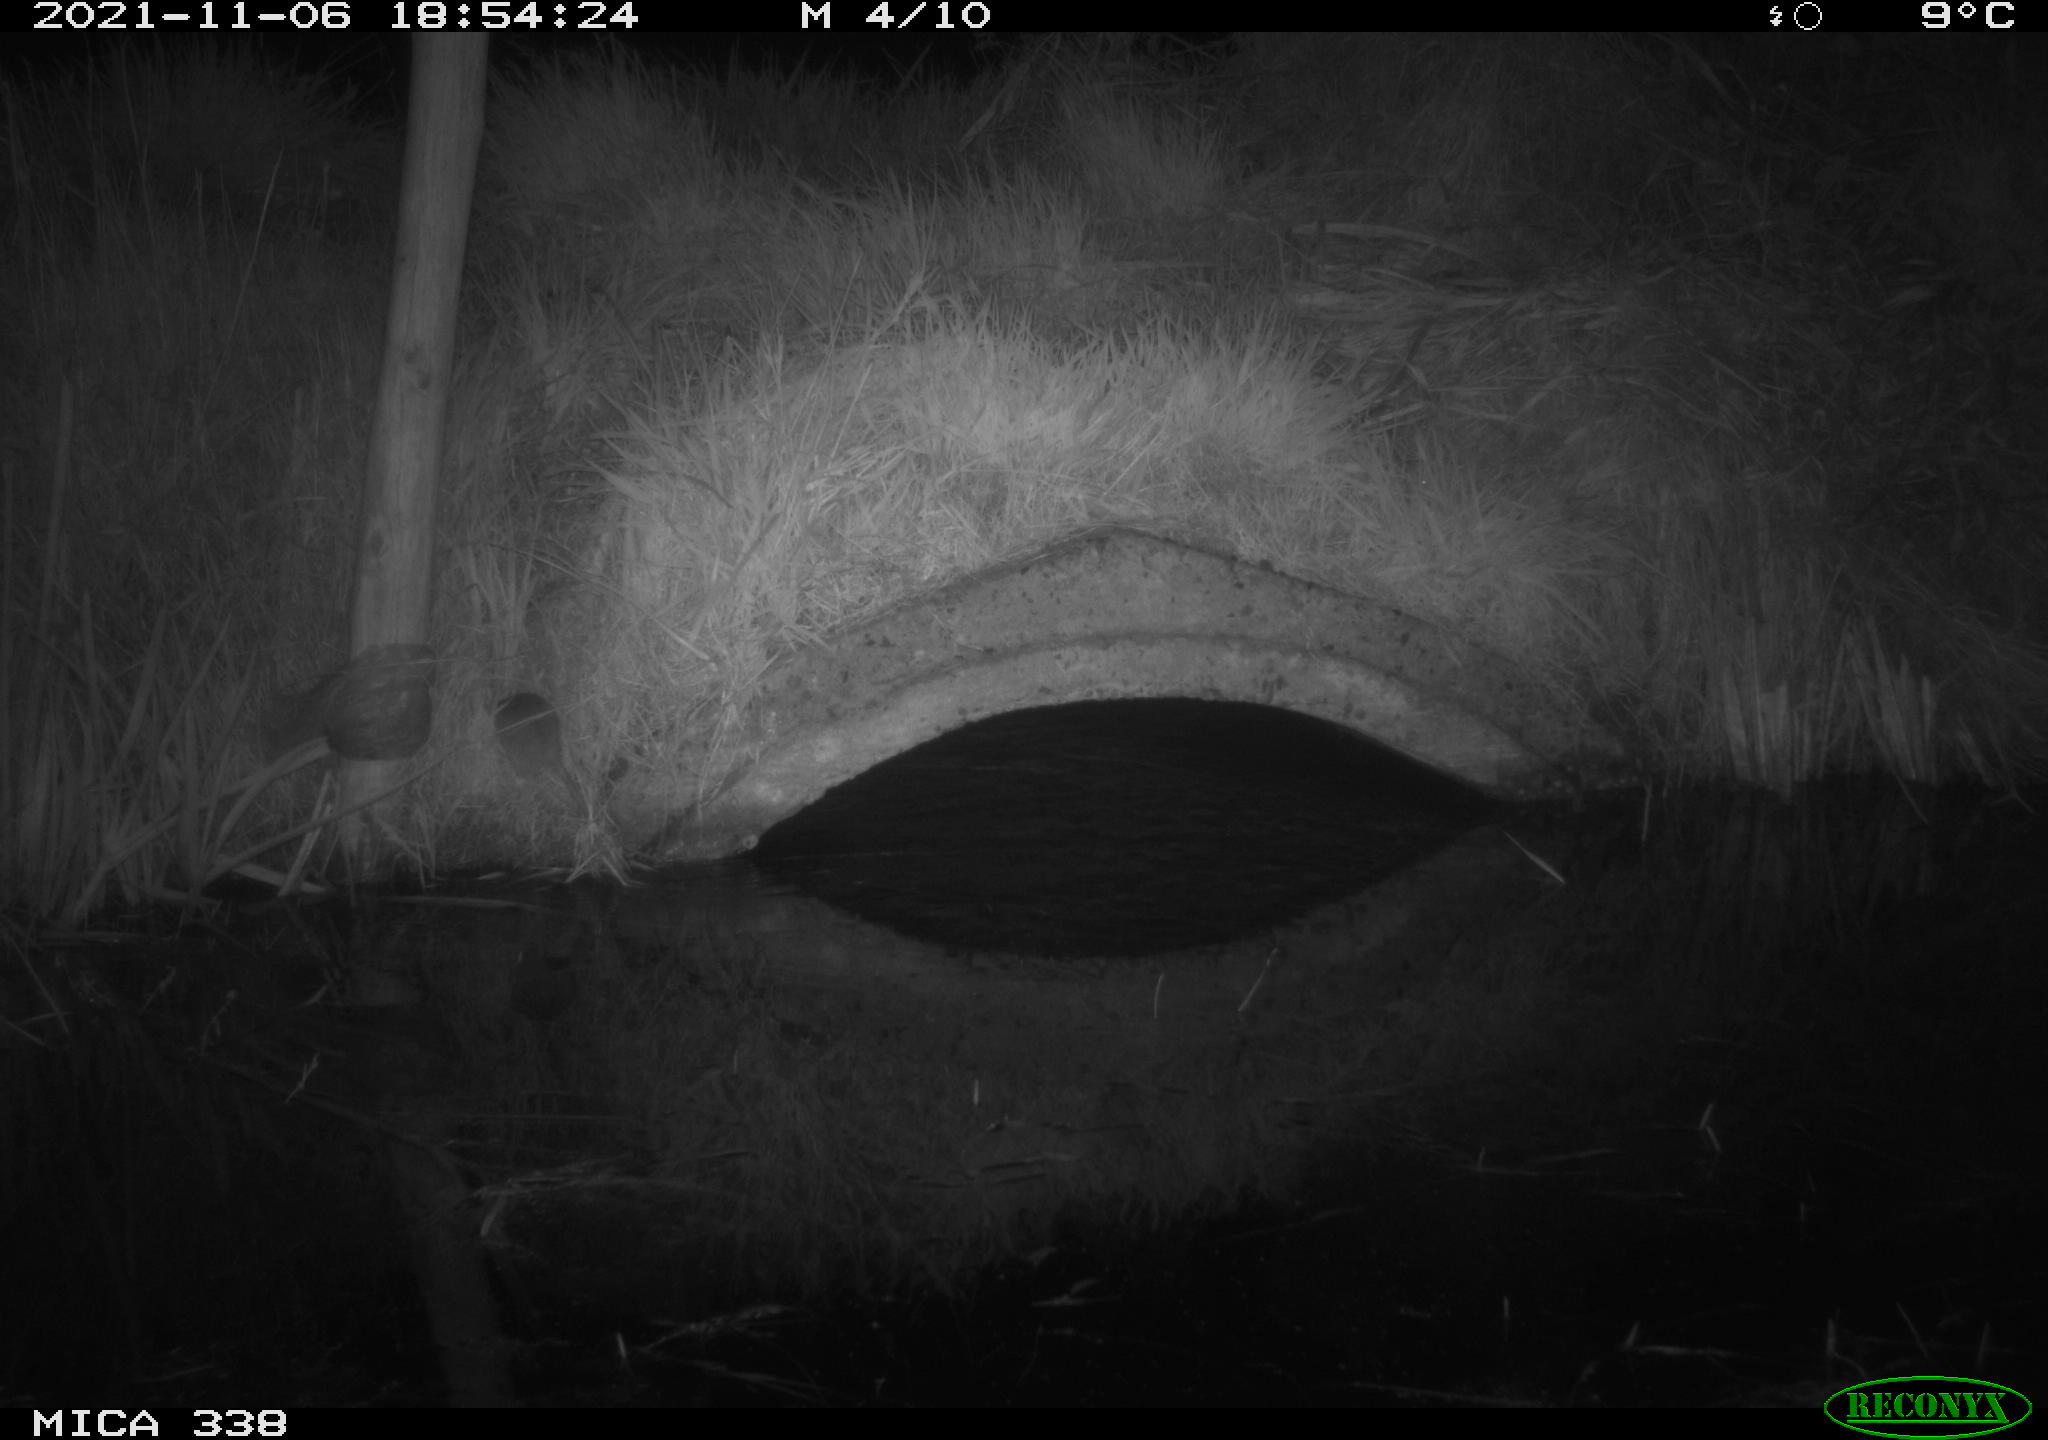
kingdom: Animalia
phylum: Chordata
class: Mammalia
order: Rodentia
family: Muridae
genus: Rattus
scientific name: Rattus norvegicus
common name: Brown rat
